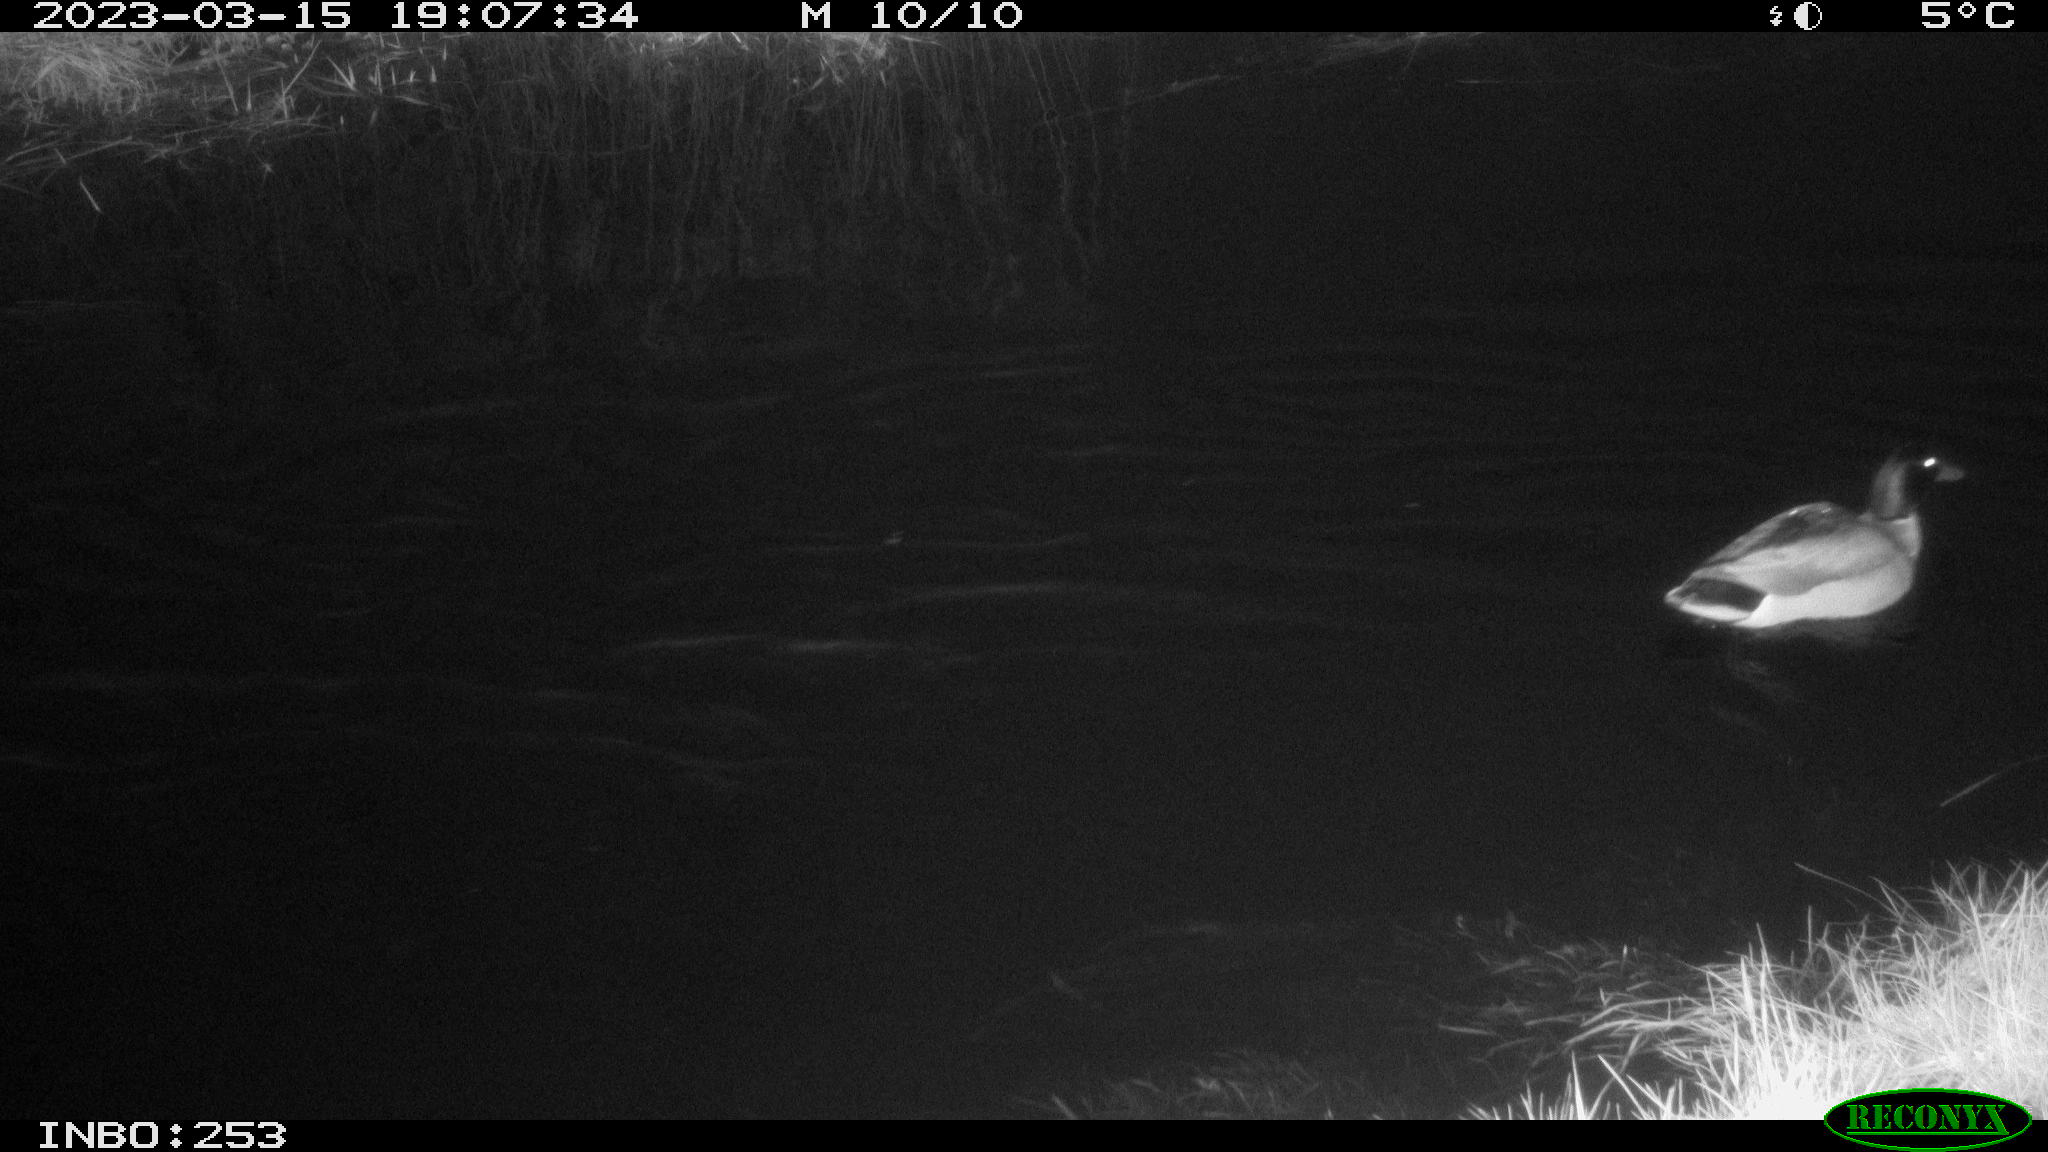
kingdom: Animalia
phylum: Chordata
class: Aves
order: Anseriformes
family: Anatidae
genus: Anas
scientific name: Anas
